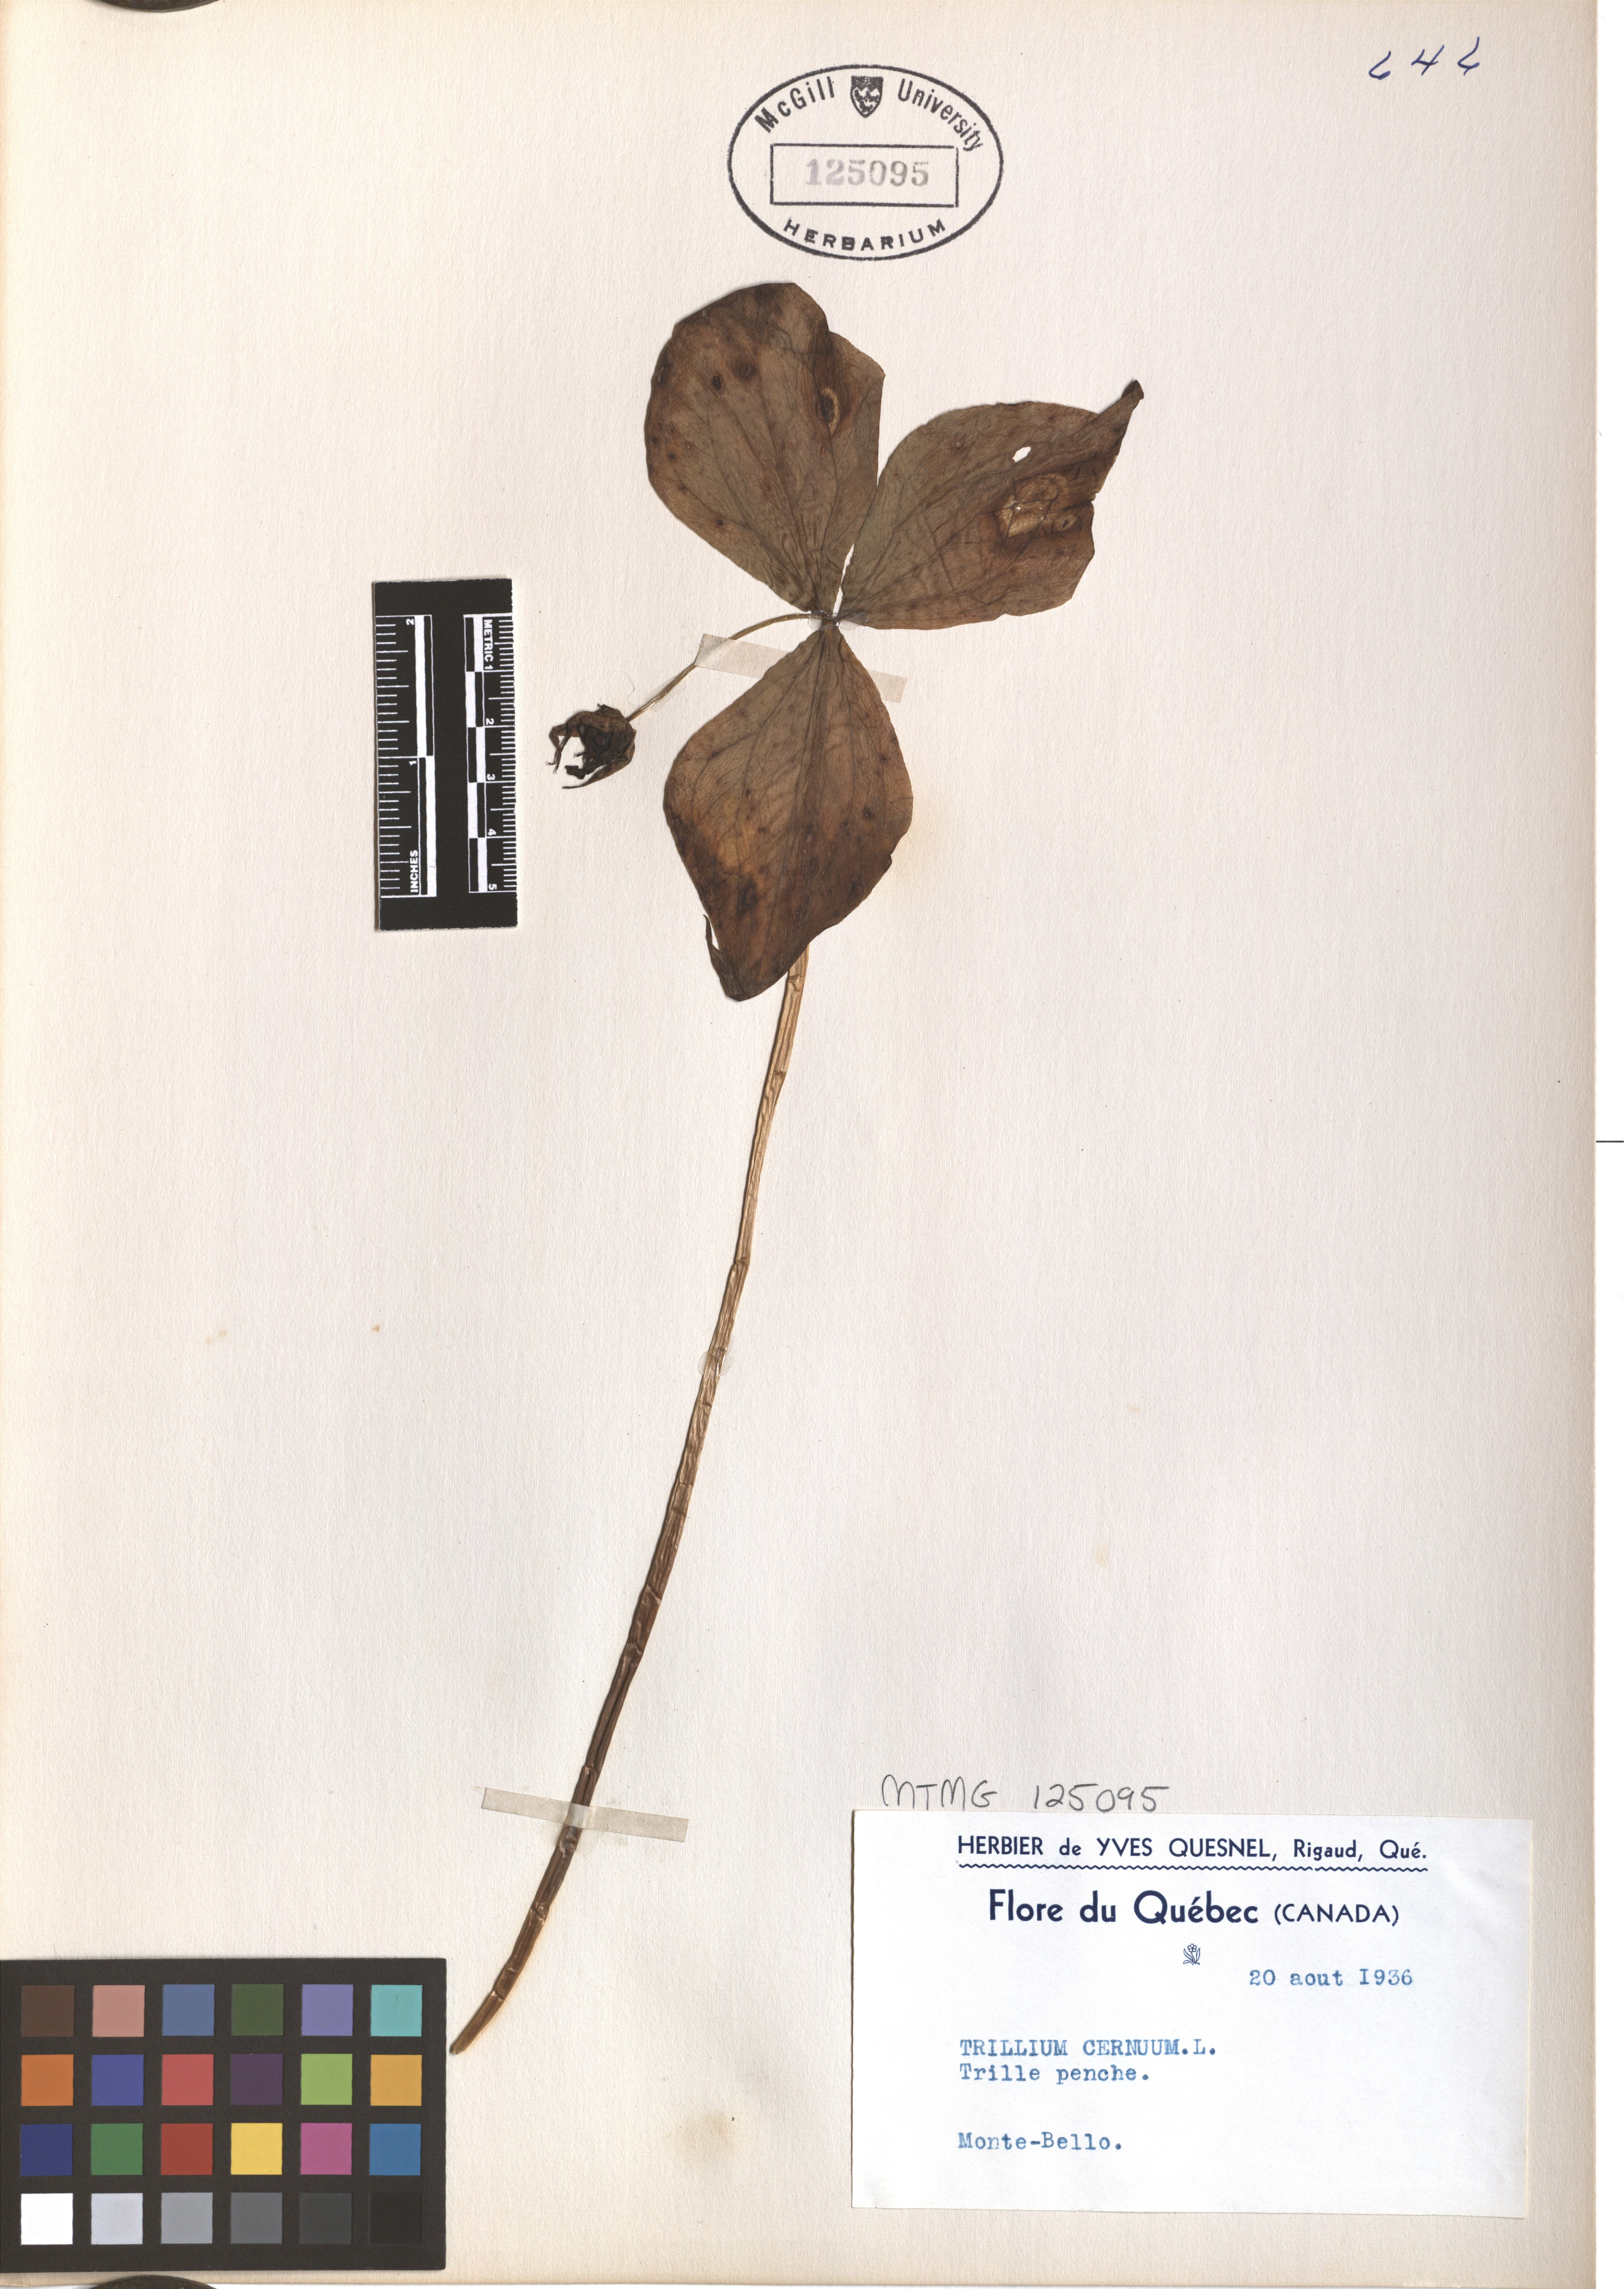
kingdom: Plantae
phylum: Tracheophyta
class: Liliopsida
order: Liliales
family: Melanthiaceae
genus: Trillium
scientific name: Trillium cernuum
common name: Nodding trillium
